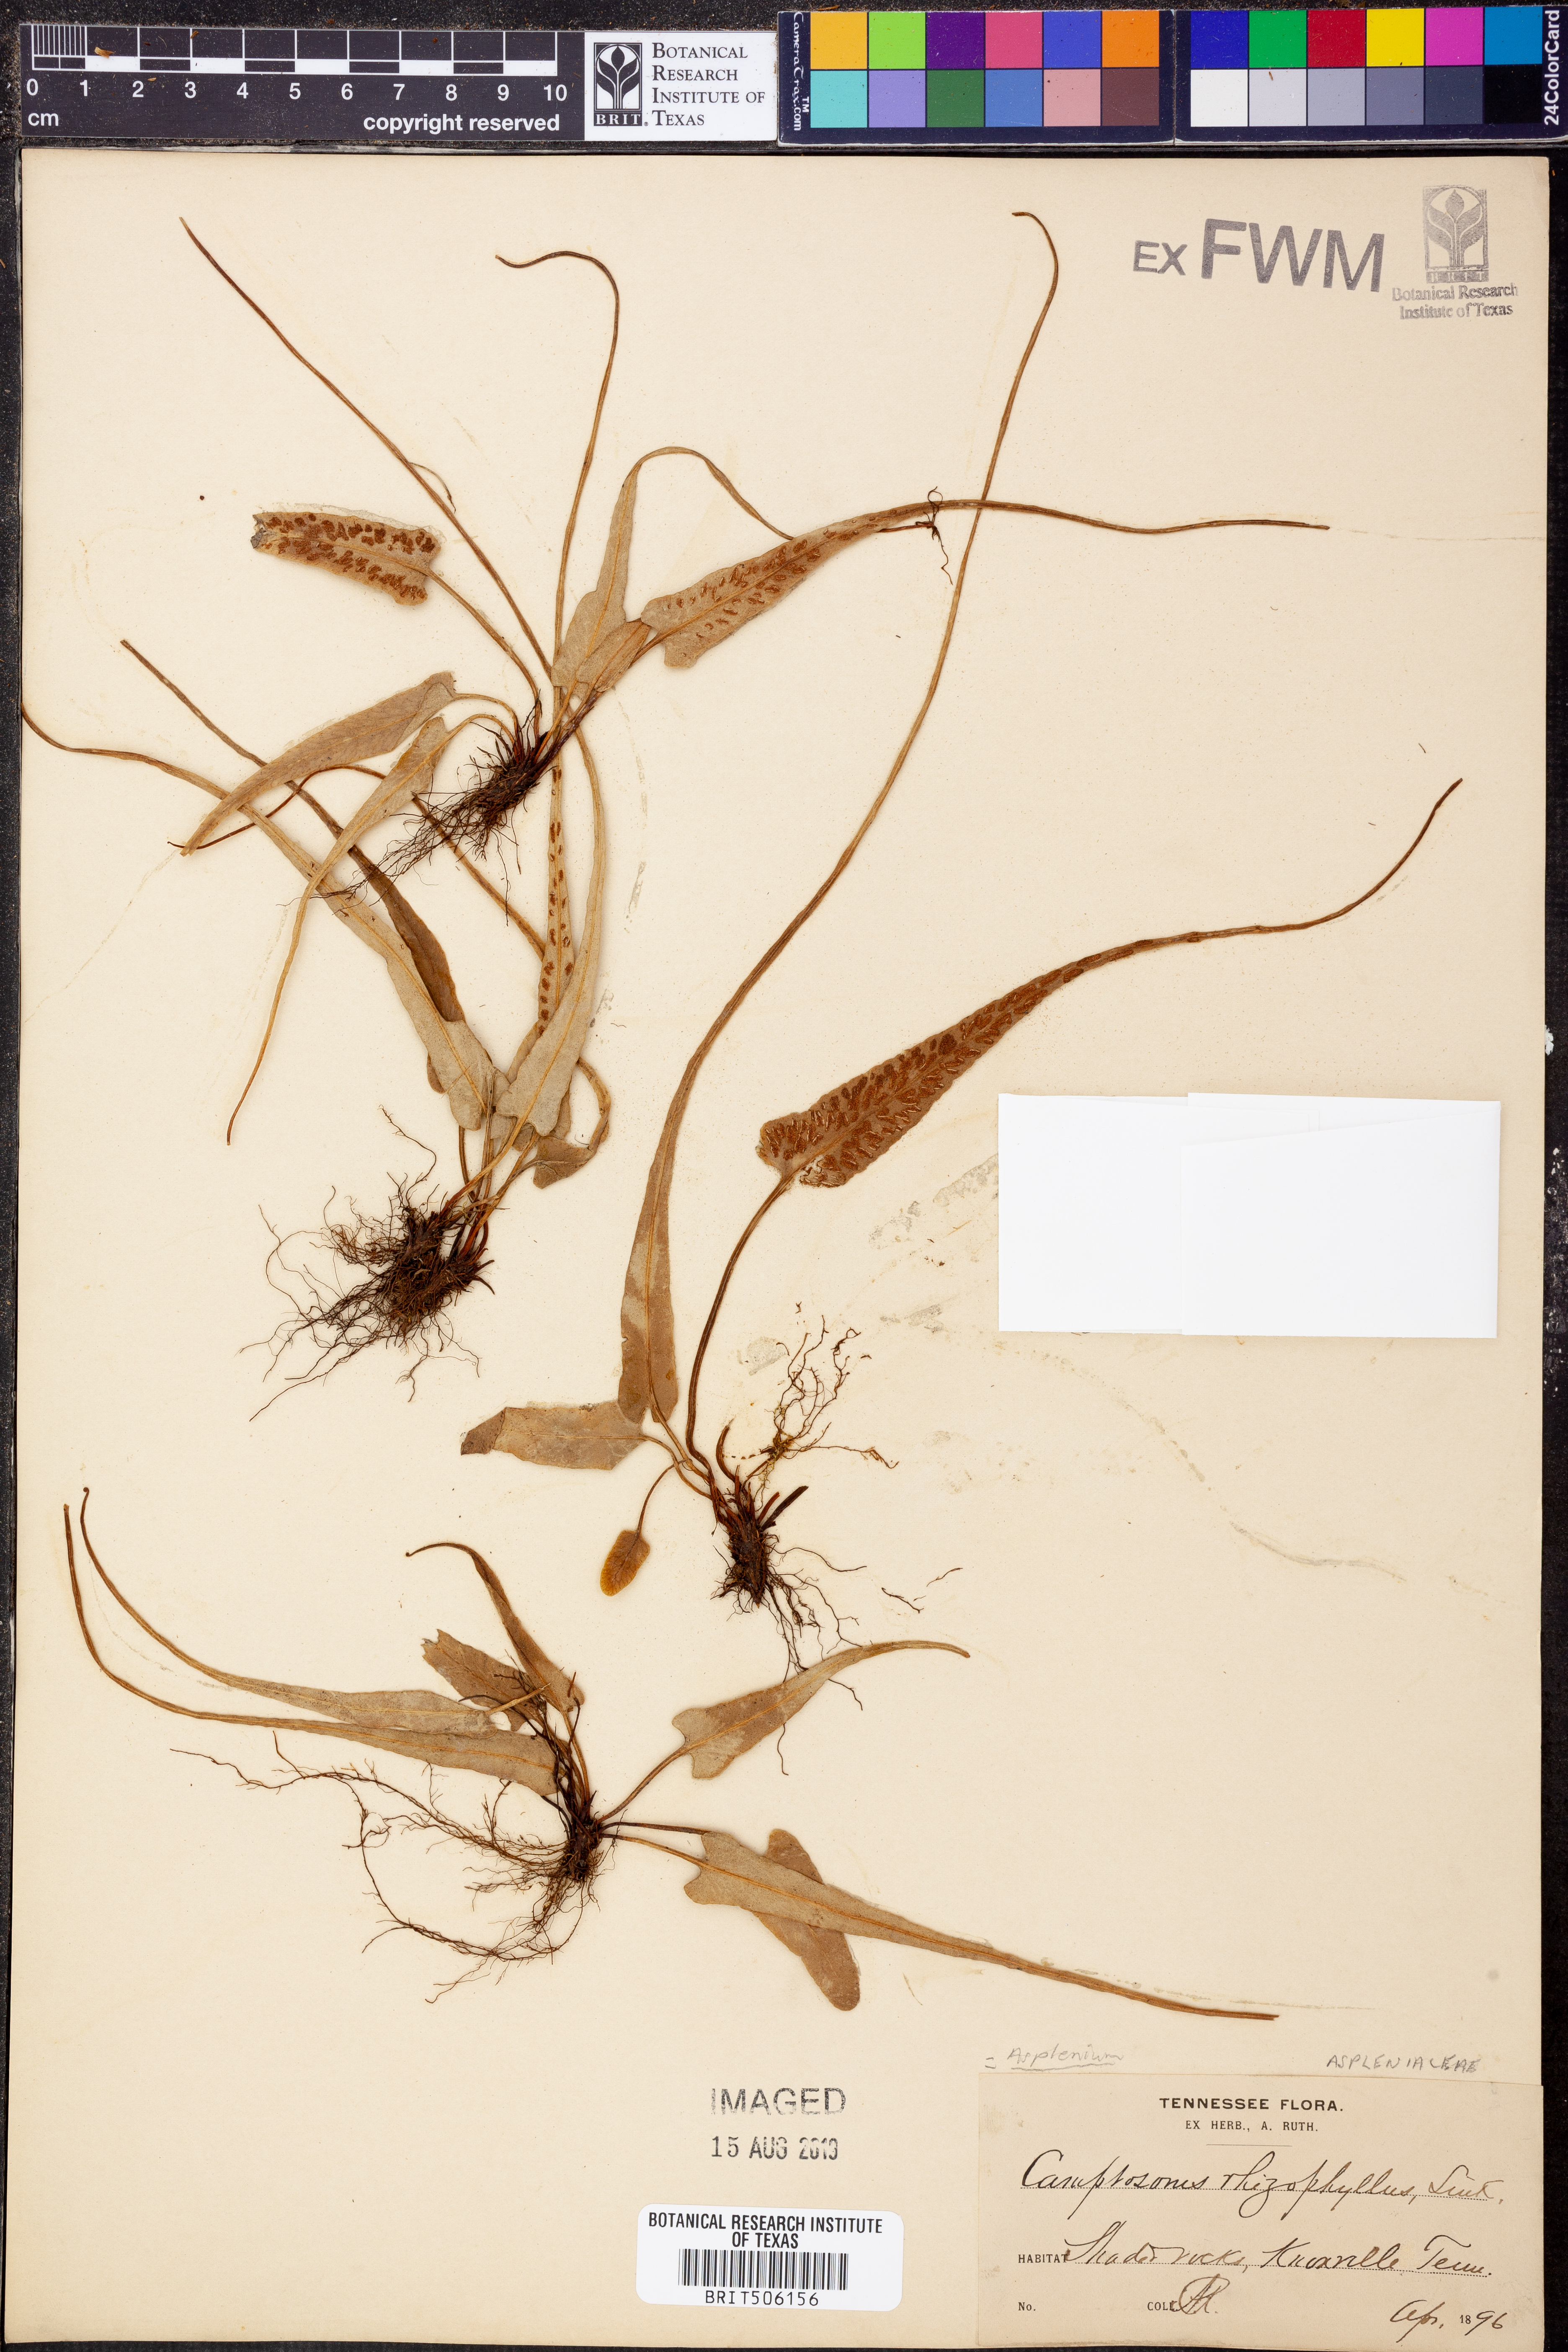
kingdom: Plantae
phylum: Tracheophyta
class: Polypodiopsida
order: Polypodiales
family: Aspleniaceae
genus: Asplenium
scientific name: Asplenium rhizophyllum
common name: Walking fern
